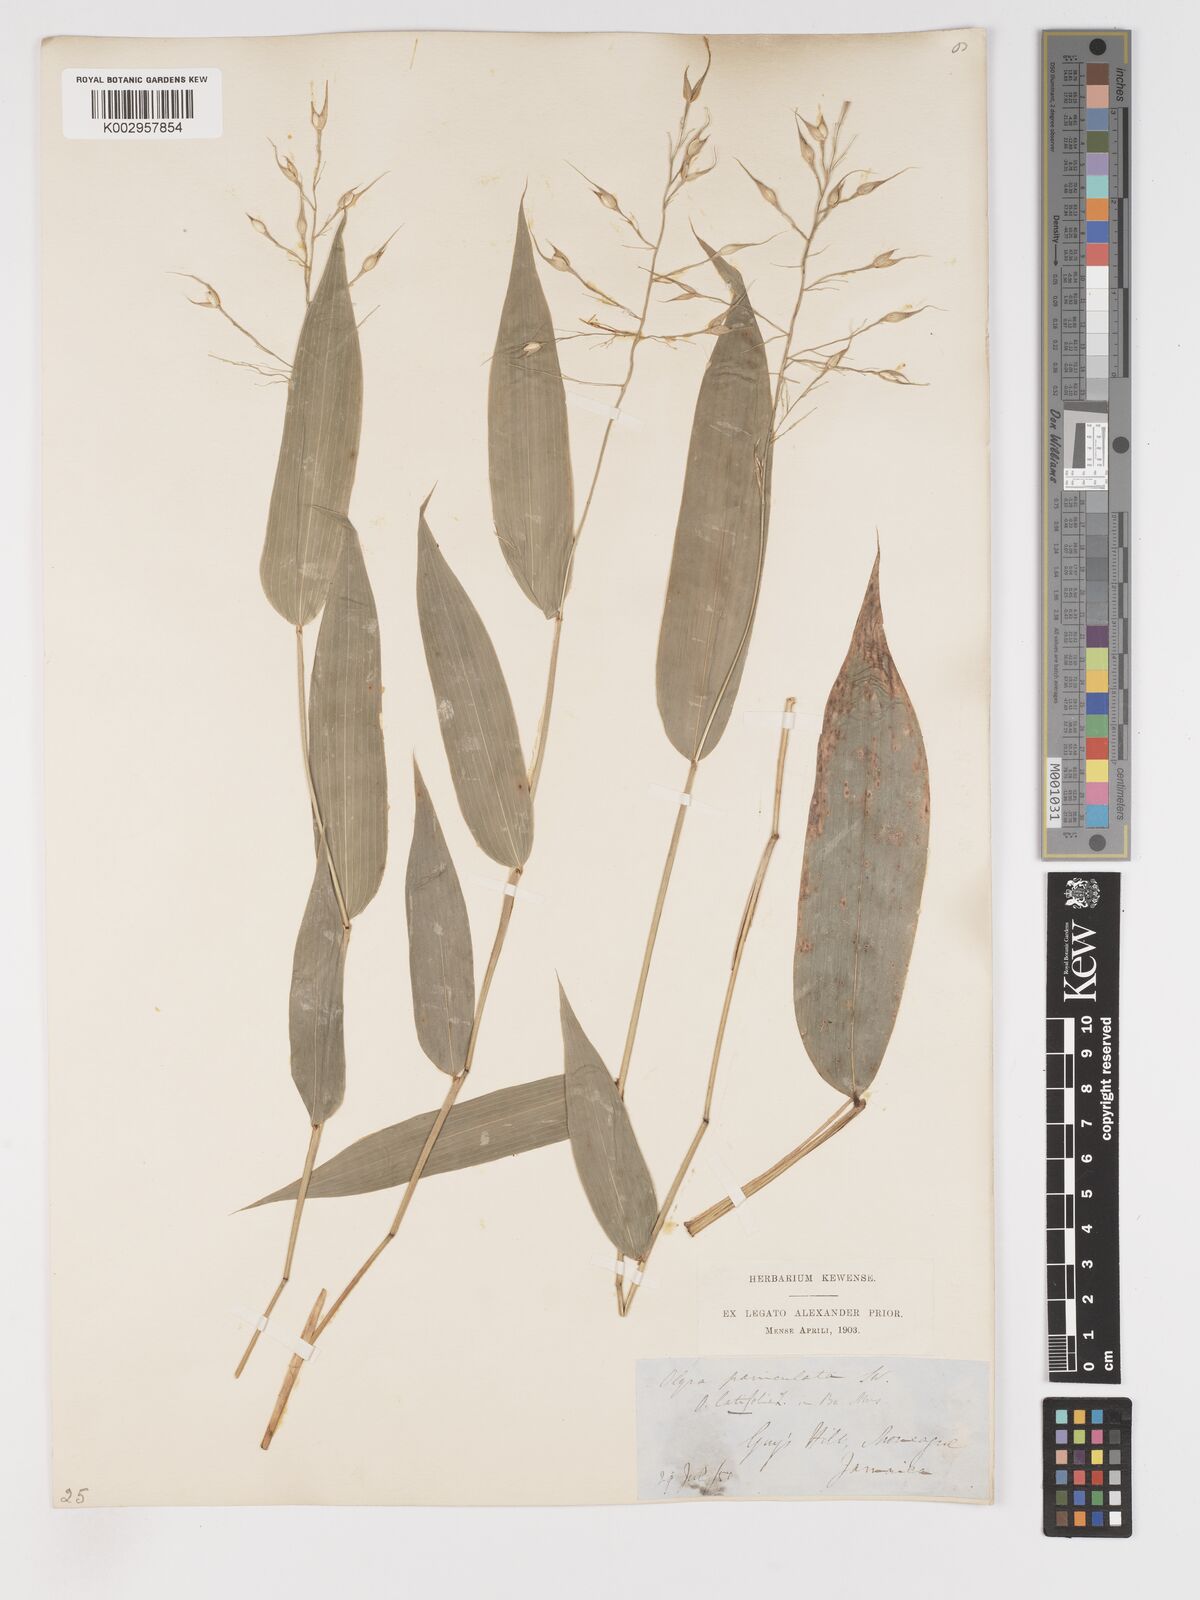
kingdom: Plantae
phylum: Tracheophyta
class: Liliopsida
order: Poales
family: Poaceae
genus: Olyra
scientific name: Olyra latifolia
